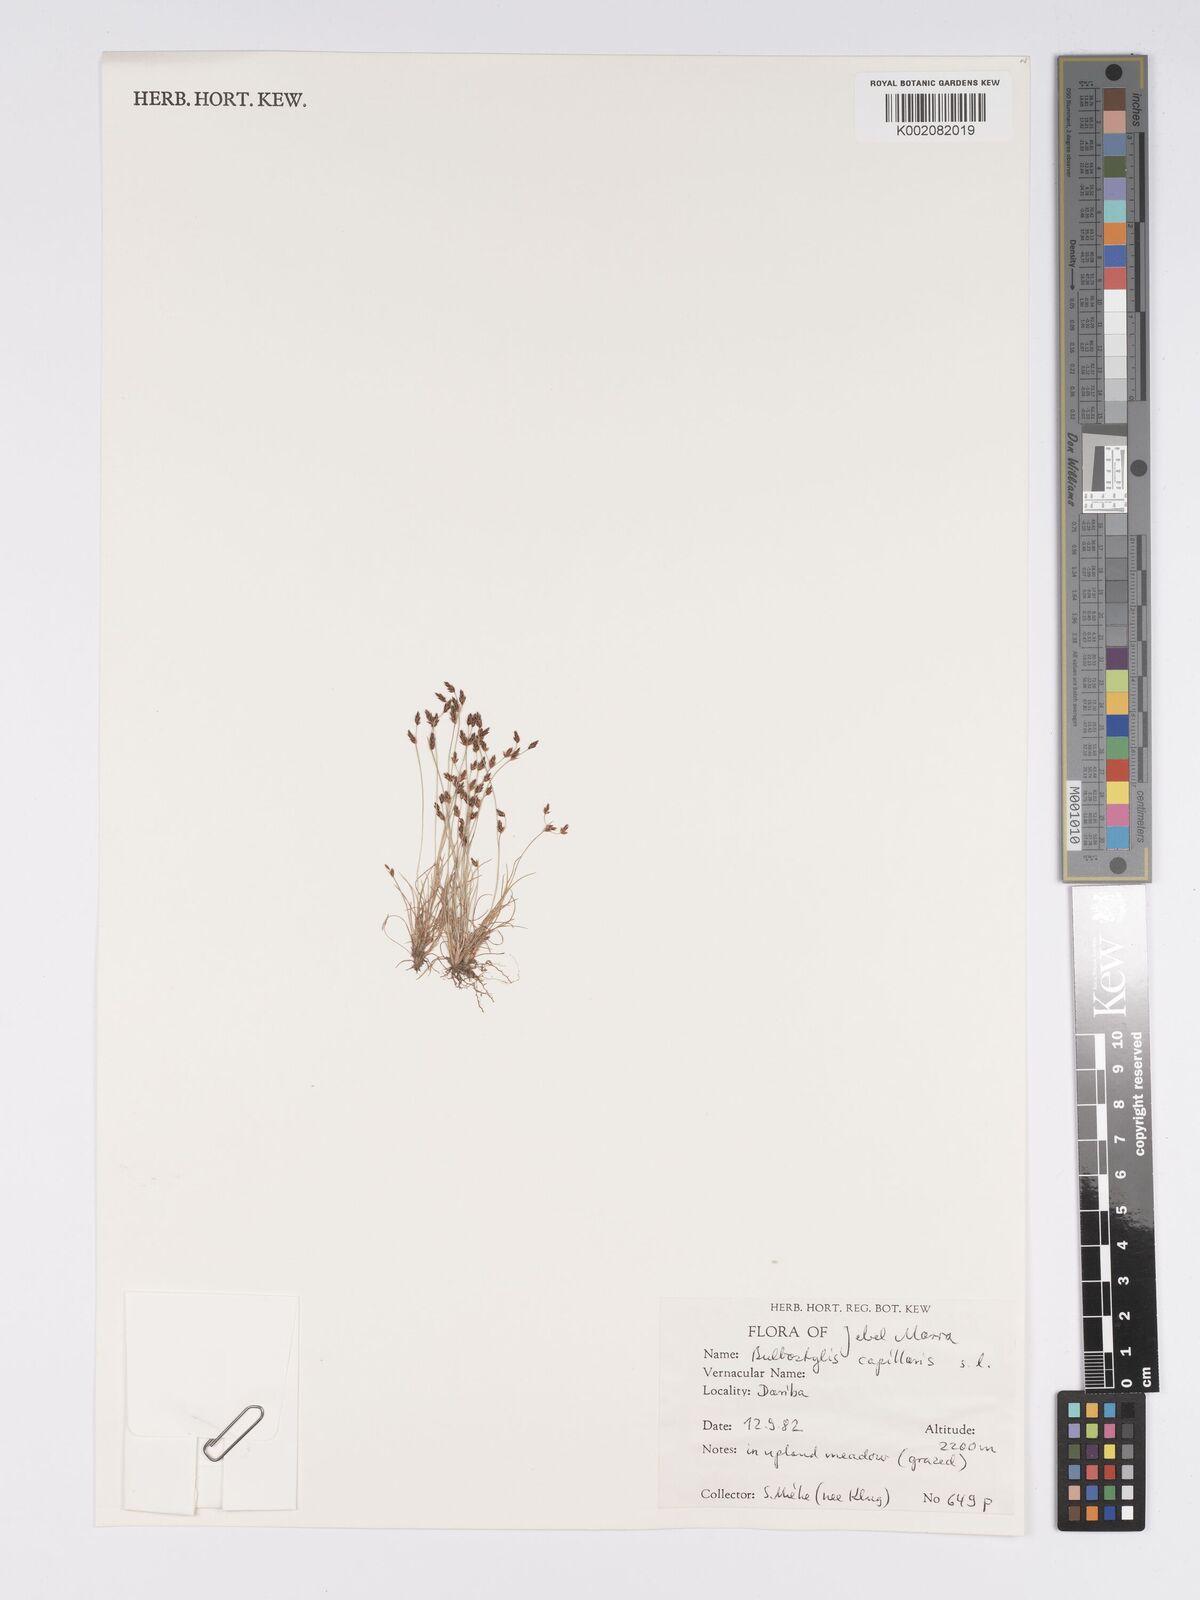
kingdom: Plantae
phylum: Tracheophyta
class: Liliopsida
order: Poales
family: Cyperaceae
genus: Bulbostylis
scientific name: Bulbostylis capillaris
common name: Densetuft hairsedge
